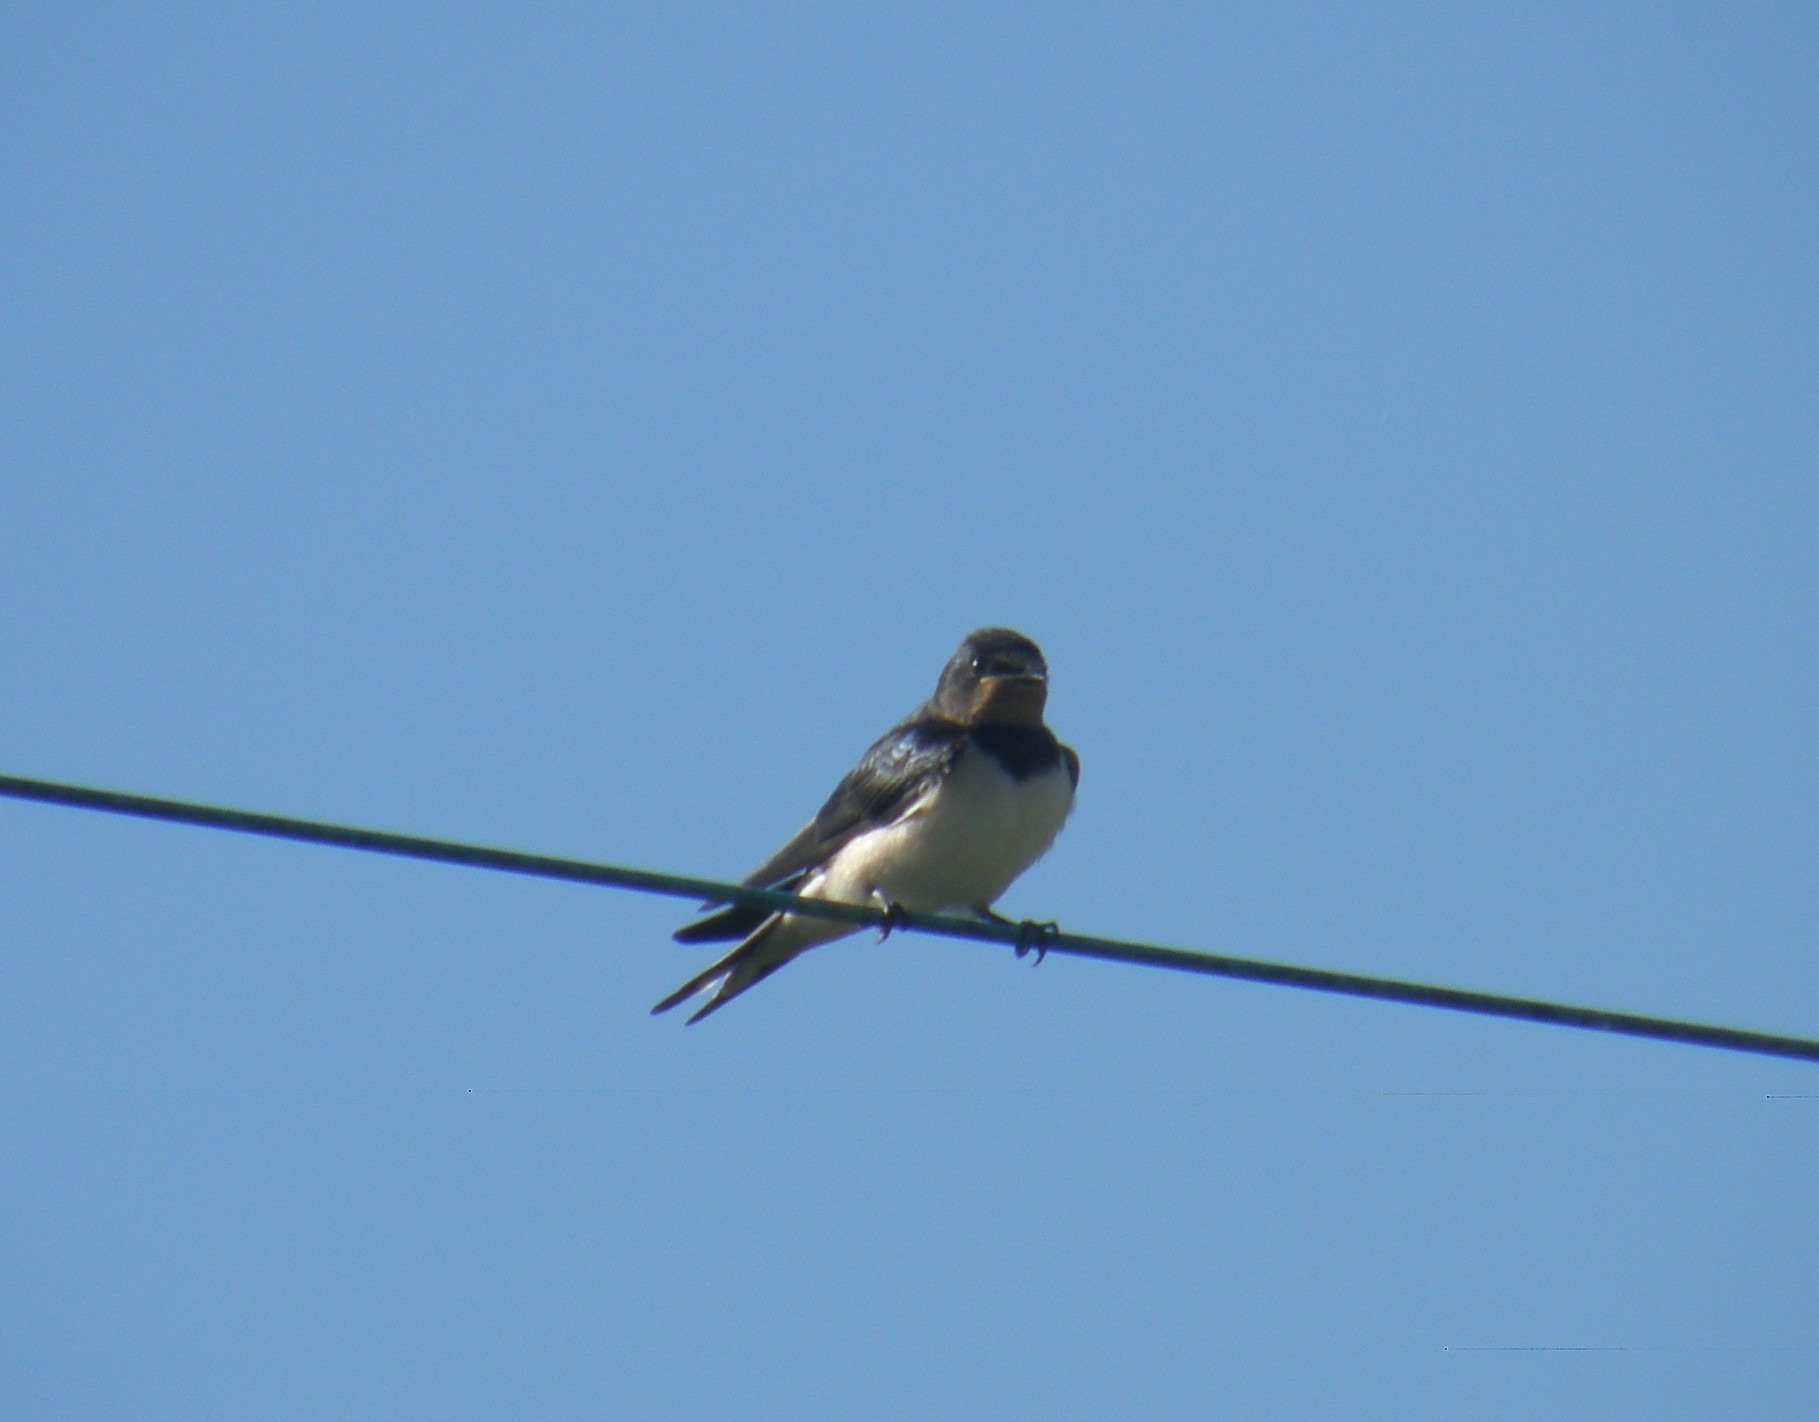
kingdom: Animalia
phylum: Chordata
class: Aves
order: Passeriformes
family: Hirundinidae
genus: Hirundo
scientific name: Hirundo rustica
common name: Landsvale
